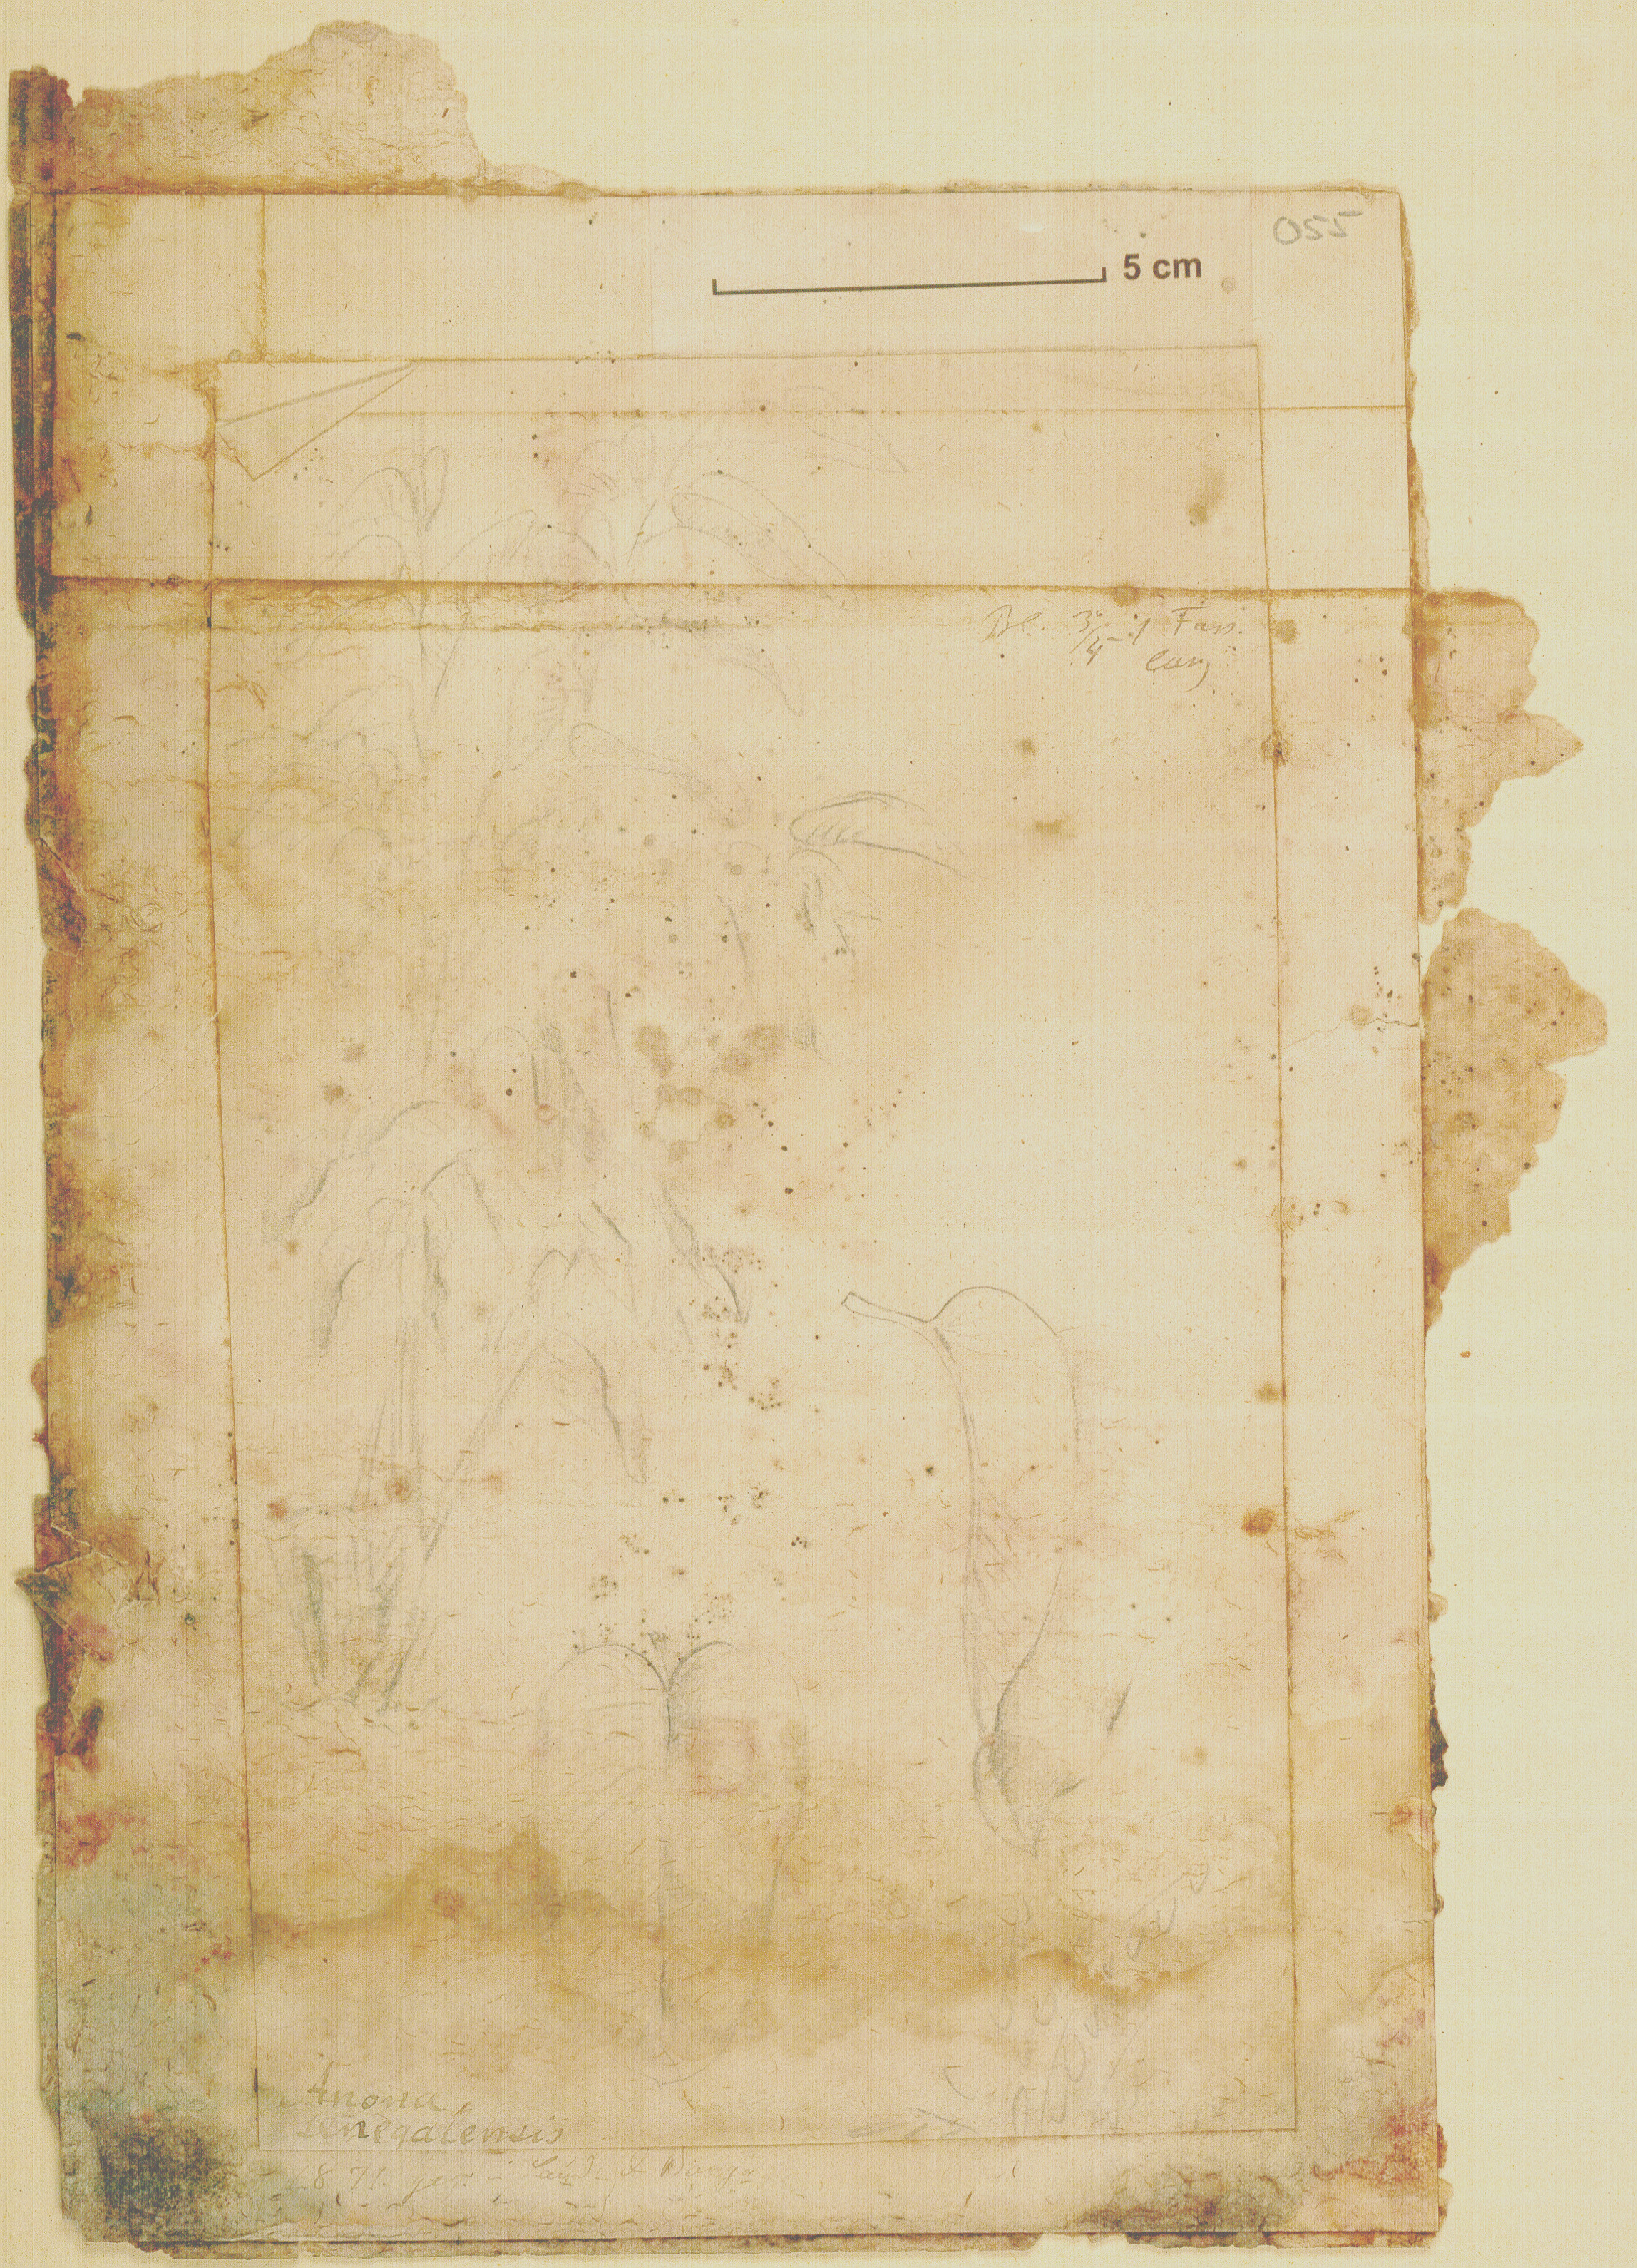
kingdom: Plantae
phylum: Tracheophyta
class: Magnoliopsida
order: Magnoliales
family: Annonaceae
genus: Annona
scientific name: Annona senegalensis
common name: Wild custard-apple
